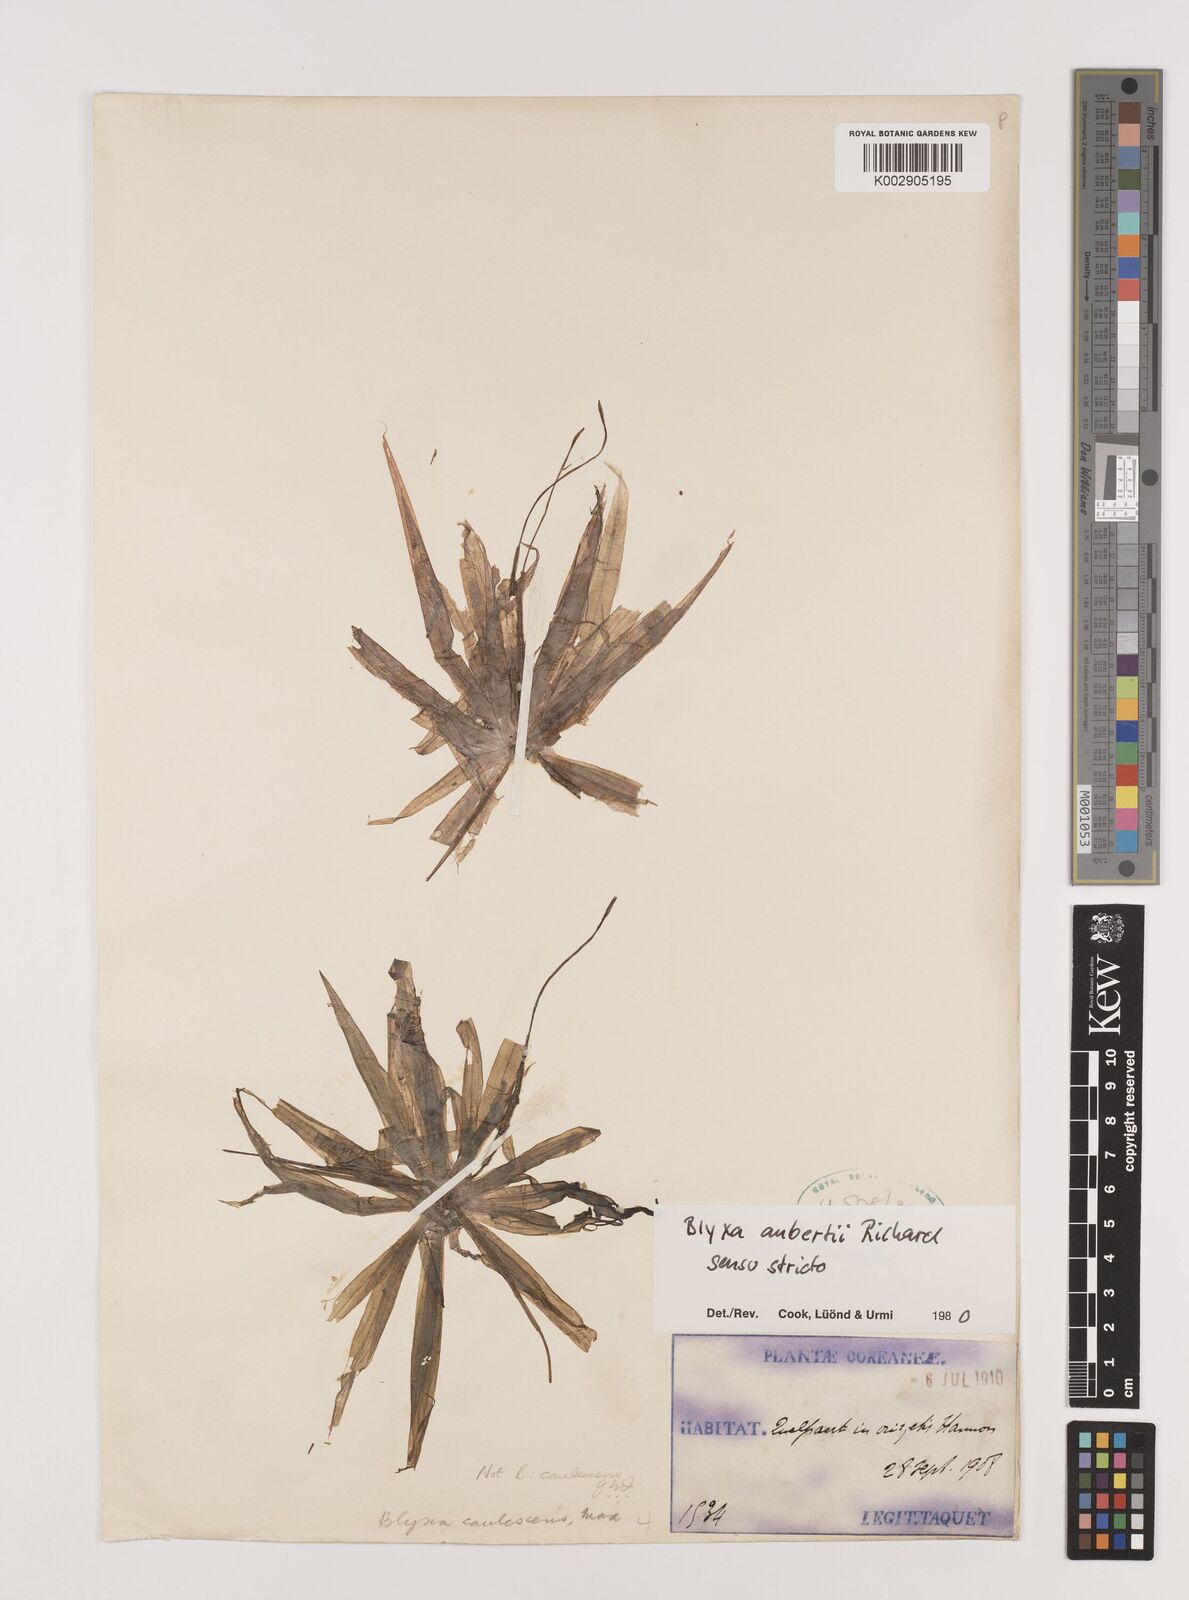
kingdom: Plantae
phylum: Tracheophyta
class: Liliopsida
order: Alismatales
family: Hydrocharitaceae
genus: Blyxa
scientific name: Blyxa aubertii
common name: Roundfruit blyxa
